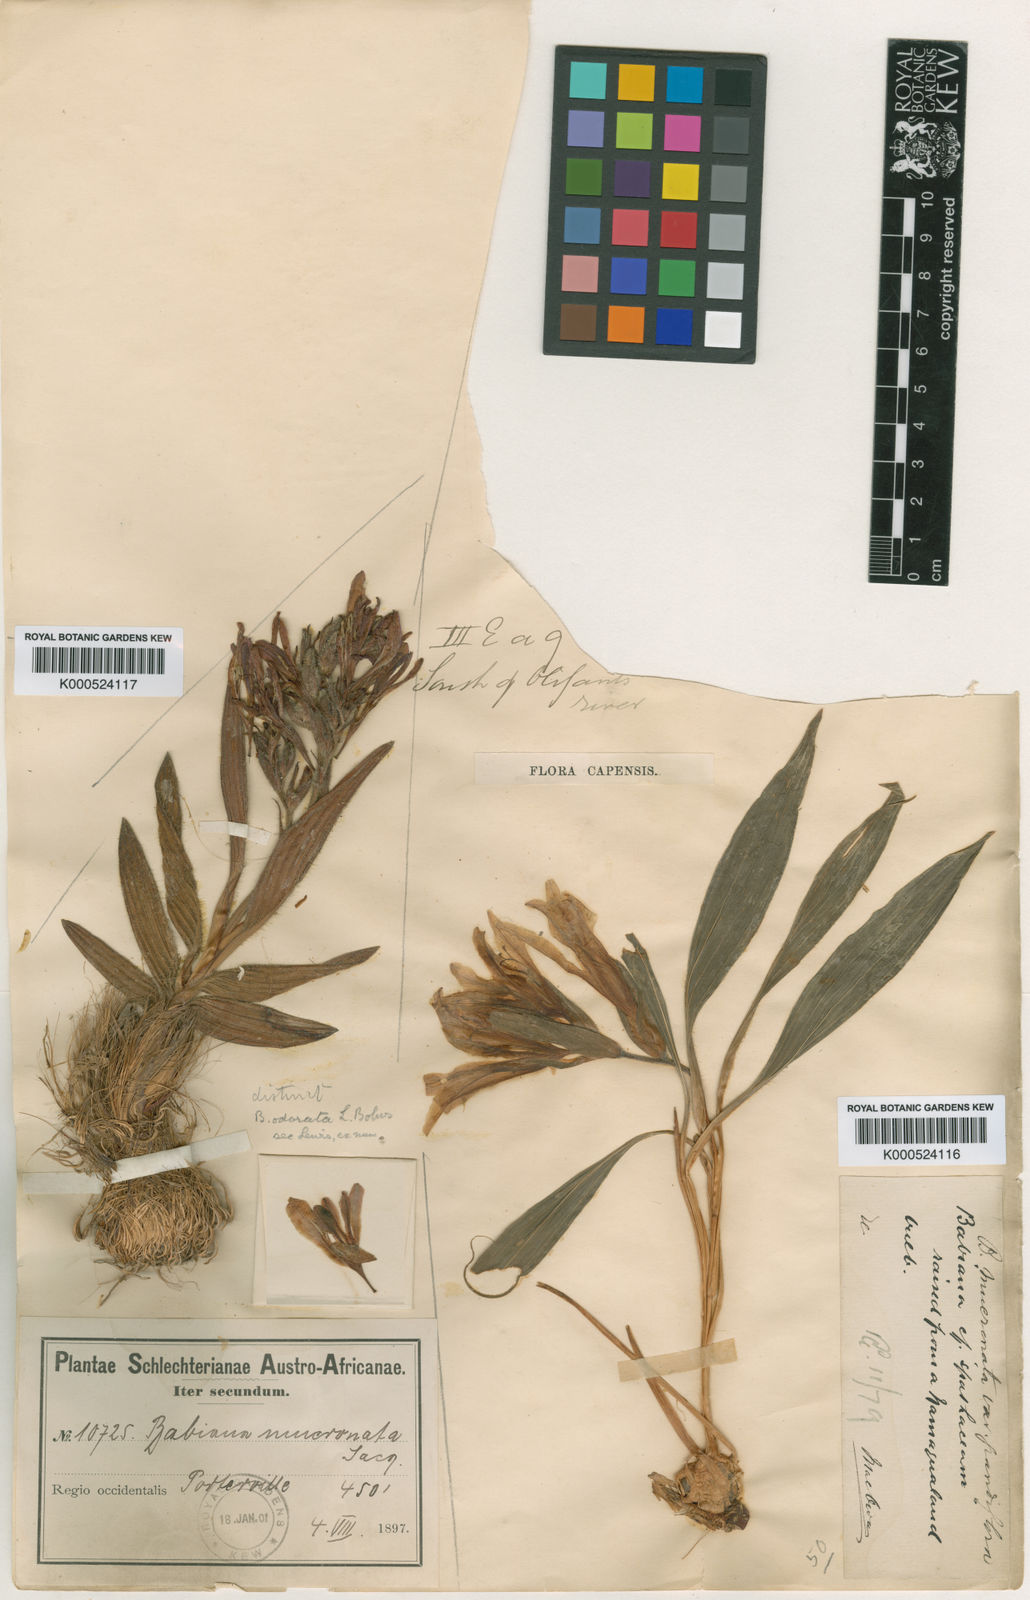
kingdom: Plantae
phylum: Tracheophyta
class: Liliopsida
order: Asparagales
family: Iridaceae
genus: Babiana
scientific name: Babiana odorata
